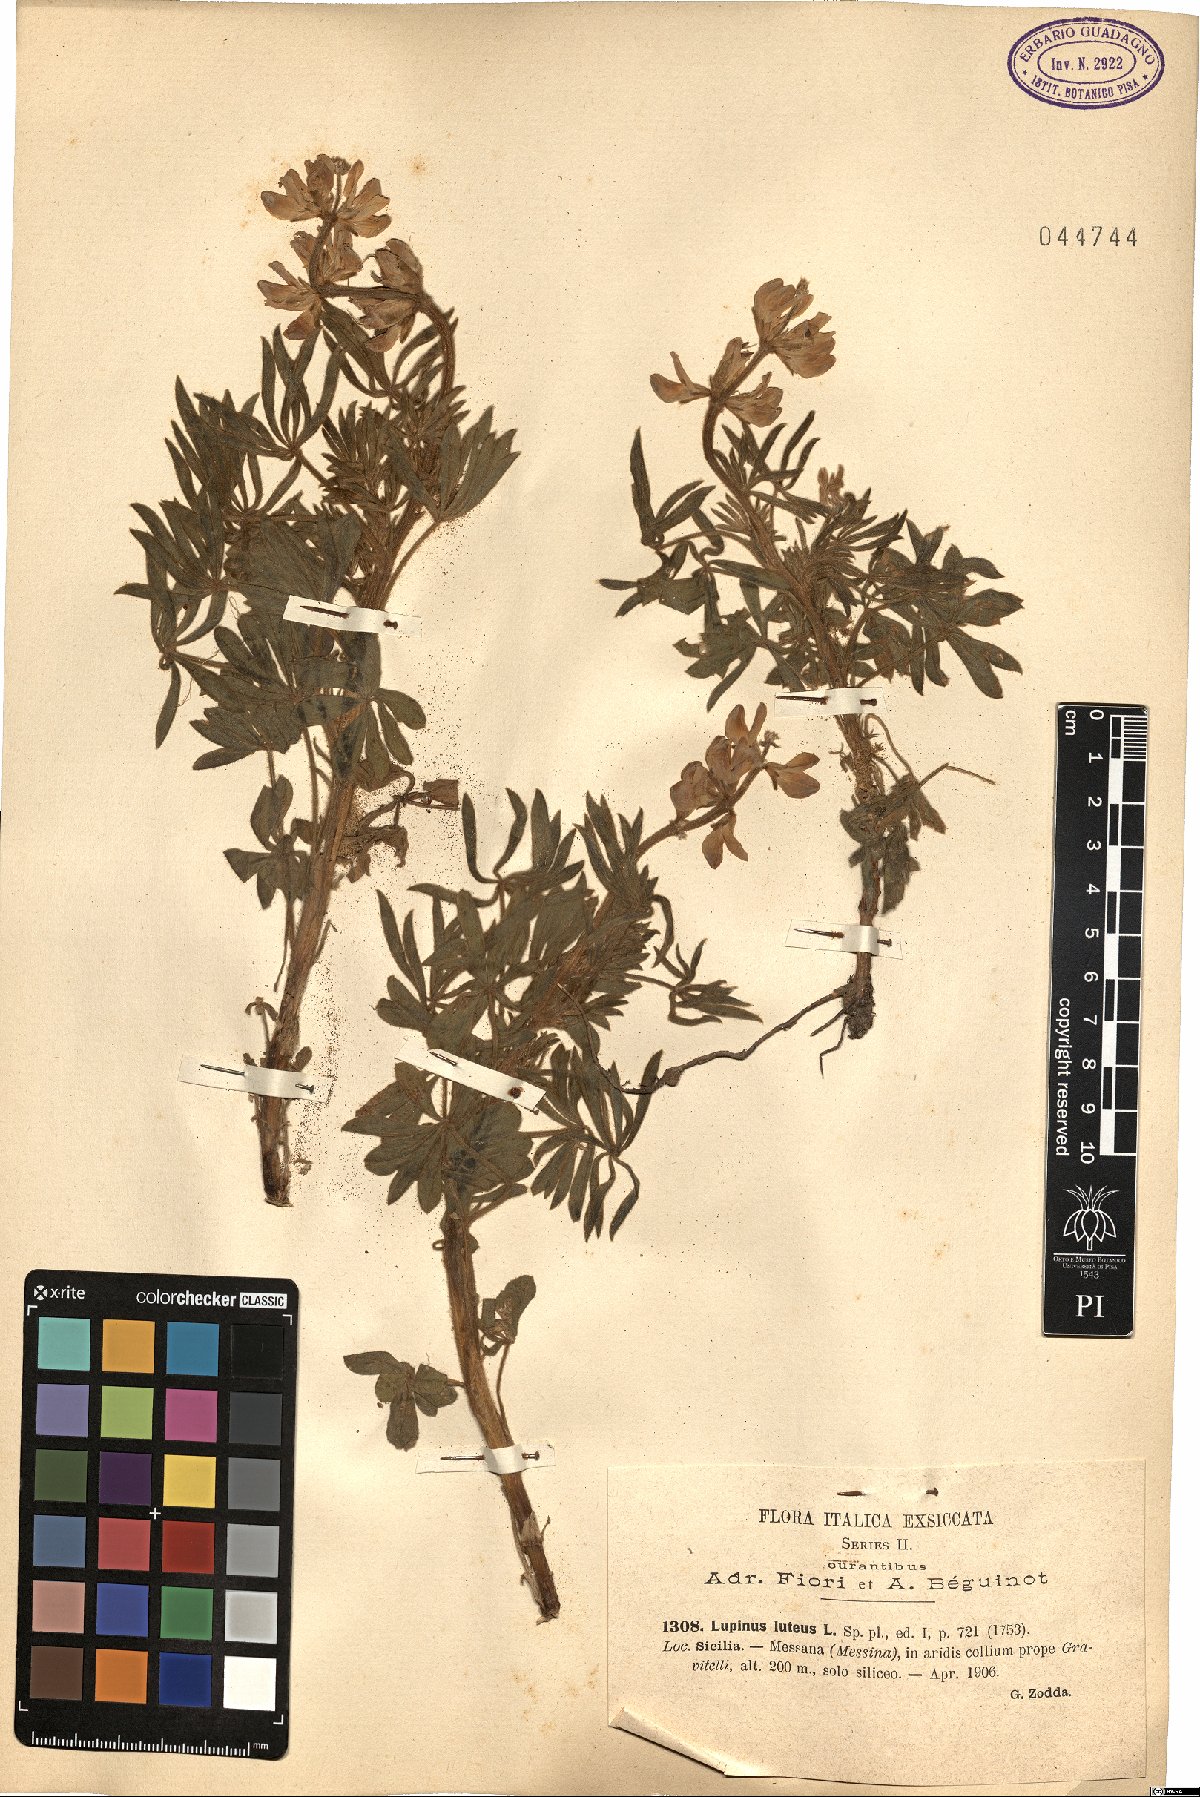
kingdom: Plantae
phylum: Tracheophyta
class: Magnoliopsida
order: Fabales
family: Fabaceae
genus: Lupinus
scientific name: Lupinus luteus
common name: European yellow lupine
